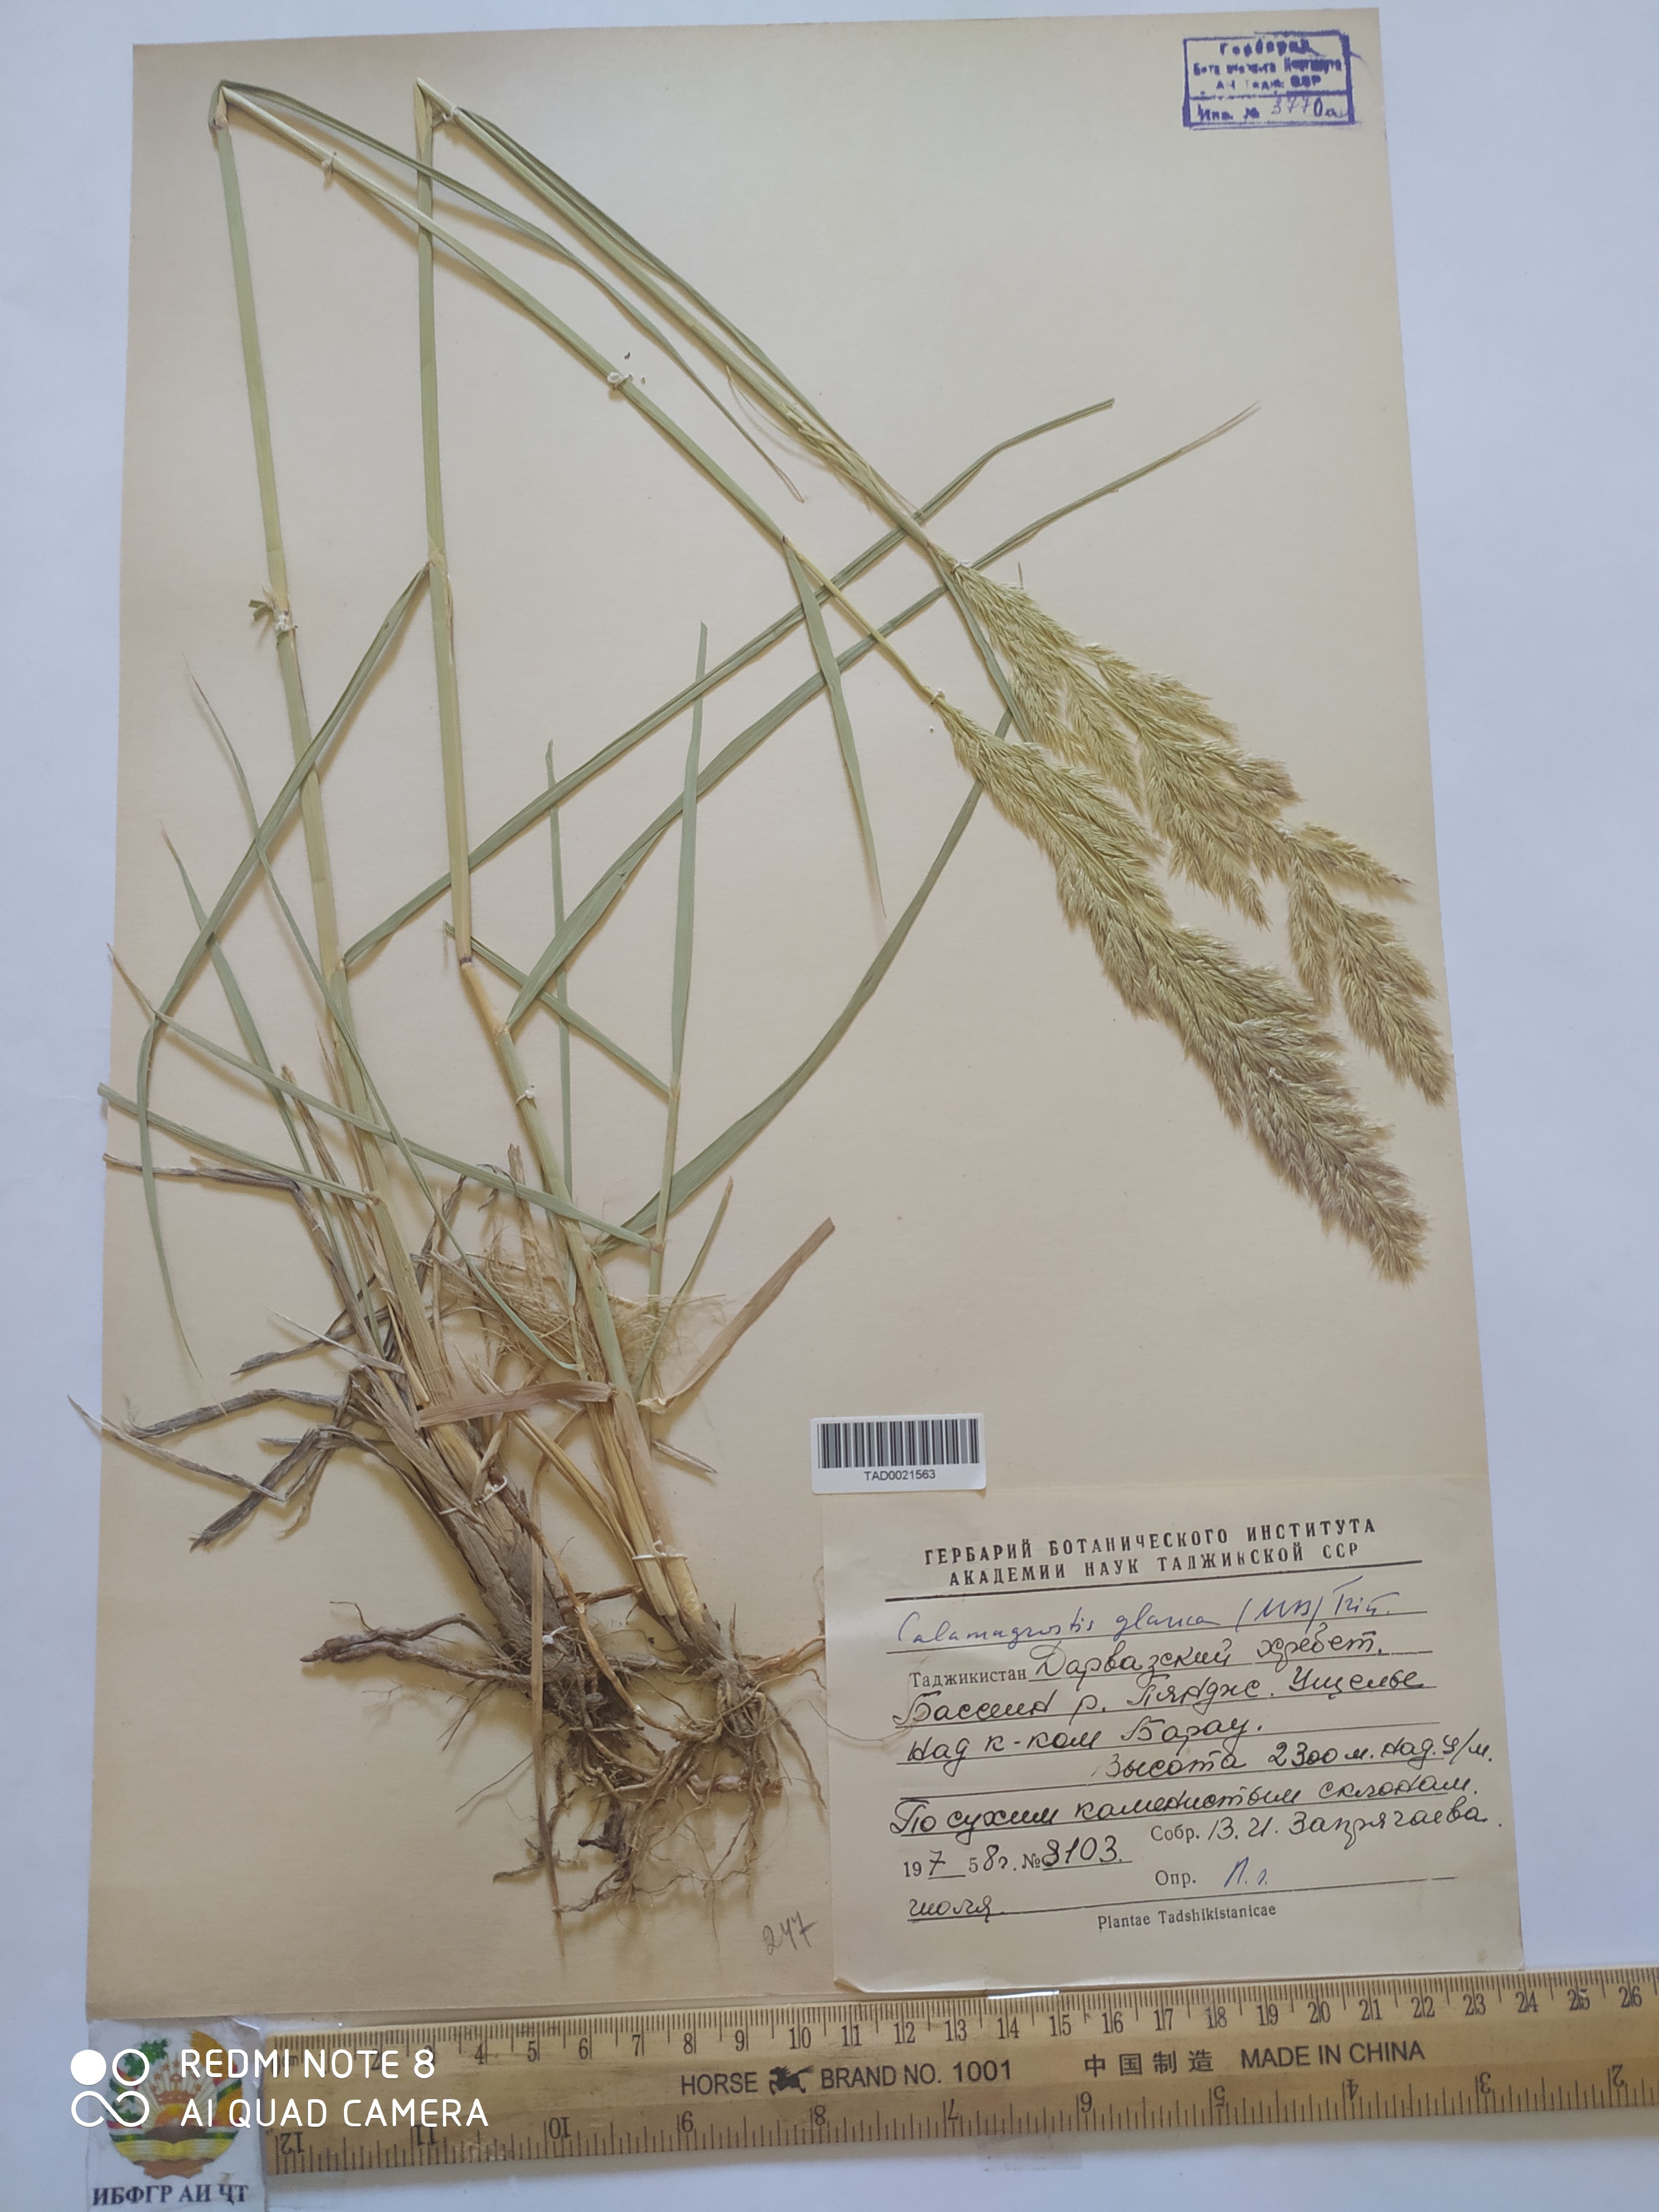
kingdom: Plantae
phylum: Tracheophyta
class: Liliopsida
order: Poales
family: Poaceae
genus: Calamagrostis
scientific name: Calamagrostis pseudophragmites
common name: Coastal small-reed
